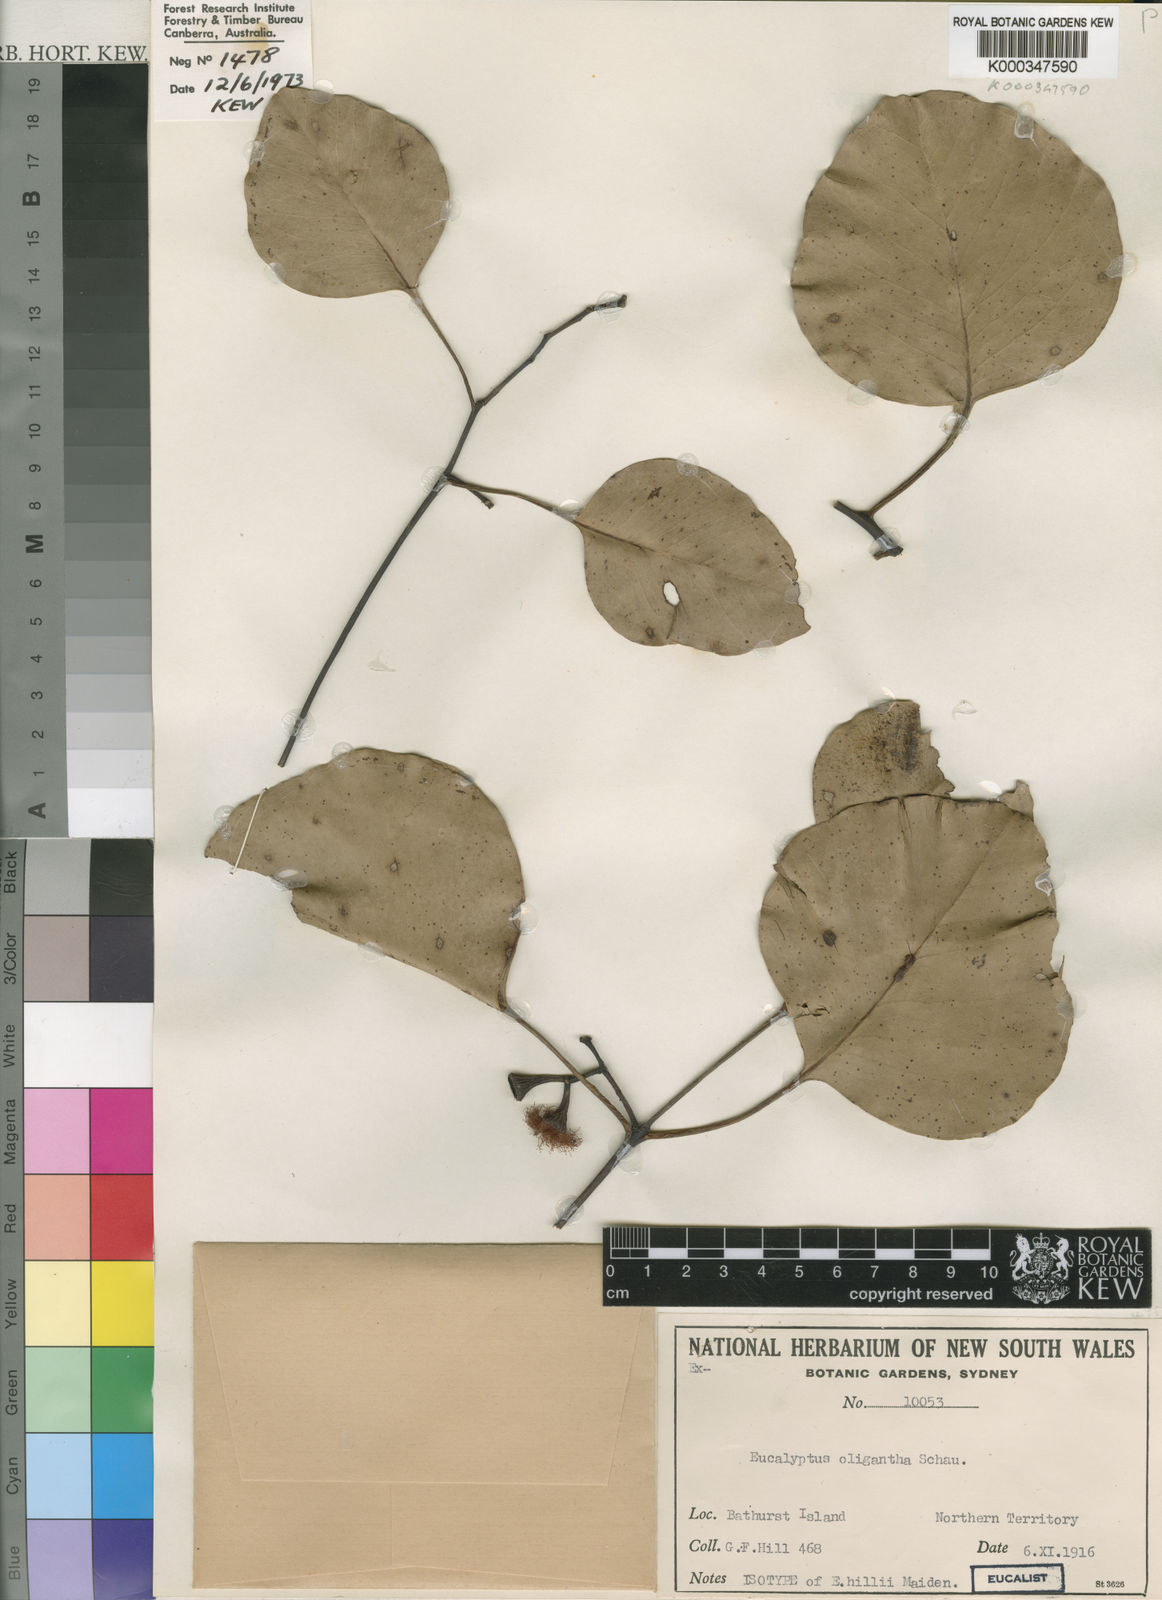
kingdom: Plantae
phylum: Tracheophyta
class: Magnoliopsida
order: Myrtales
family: Myrtaceae
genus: Eucalyptus
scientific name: Eucalyptus oligantha
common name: Broadleaf-box
